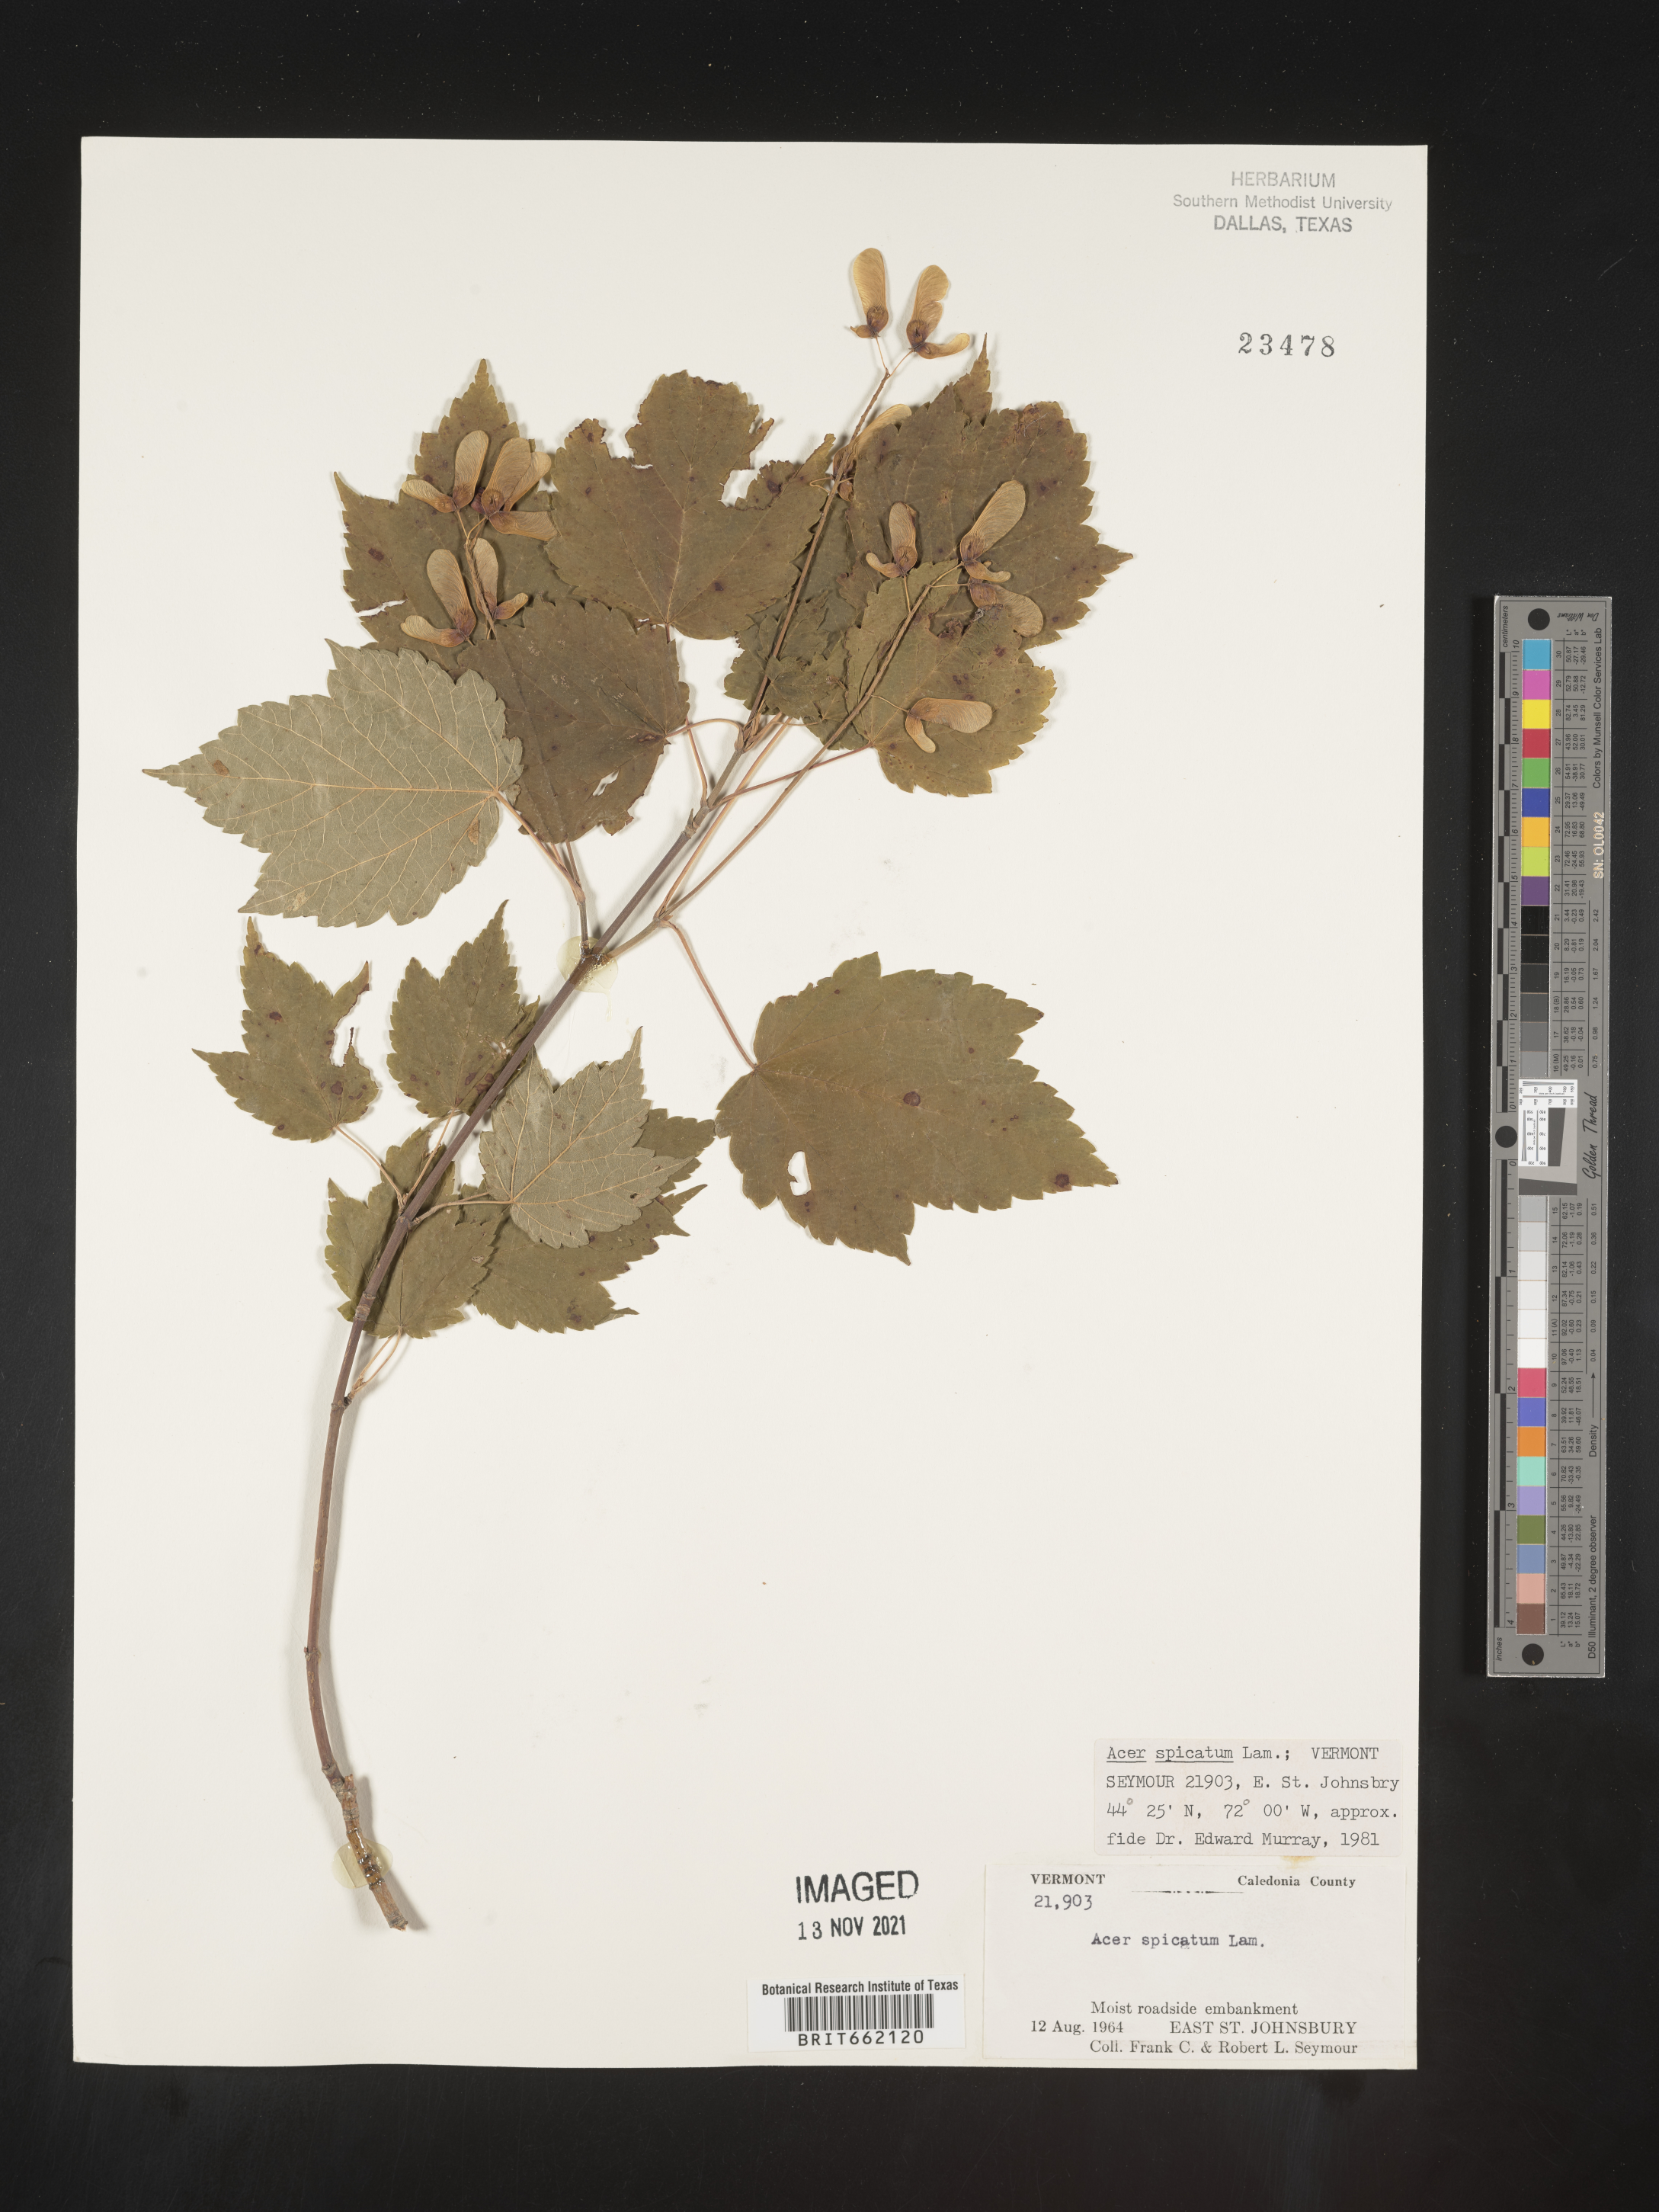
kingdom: Plantae
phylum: Tracheophyta
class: Magnoliopsida
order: Sapindales
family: Sapindaceae
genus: Acer
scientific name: Acer spicatum
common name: Mountain maple
